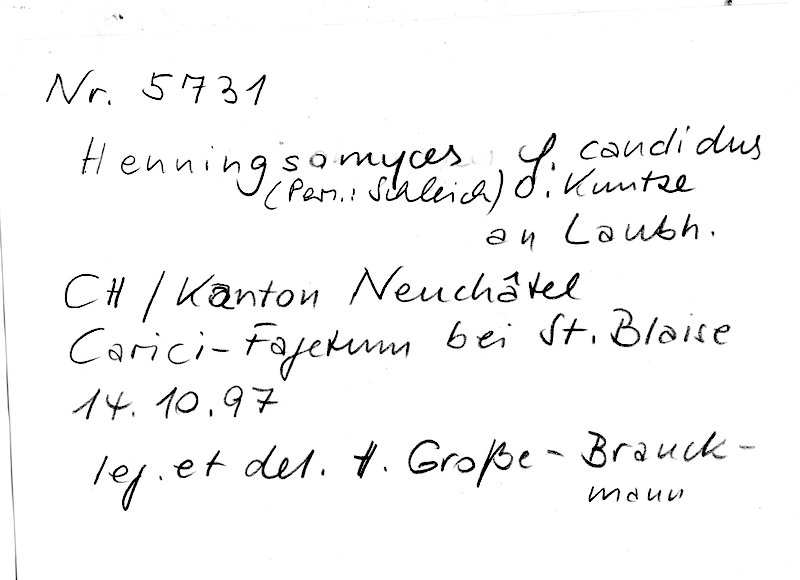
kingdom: Fungi
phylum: Basidiomycota
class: Agaricomycetes
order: Agaricales
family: Marasmiaceae
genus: Henningsomyces
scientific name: Henningsomyces candidus
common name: White tubelet
